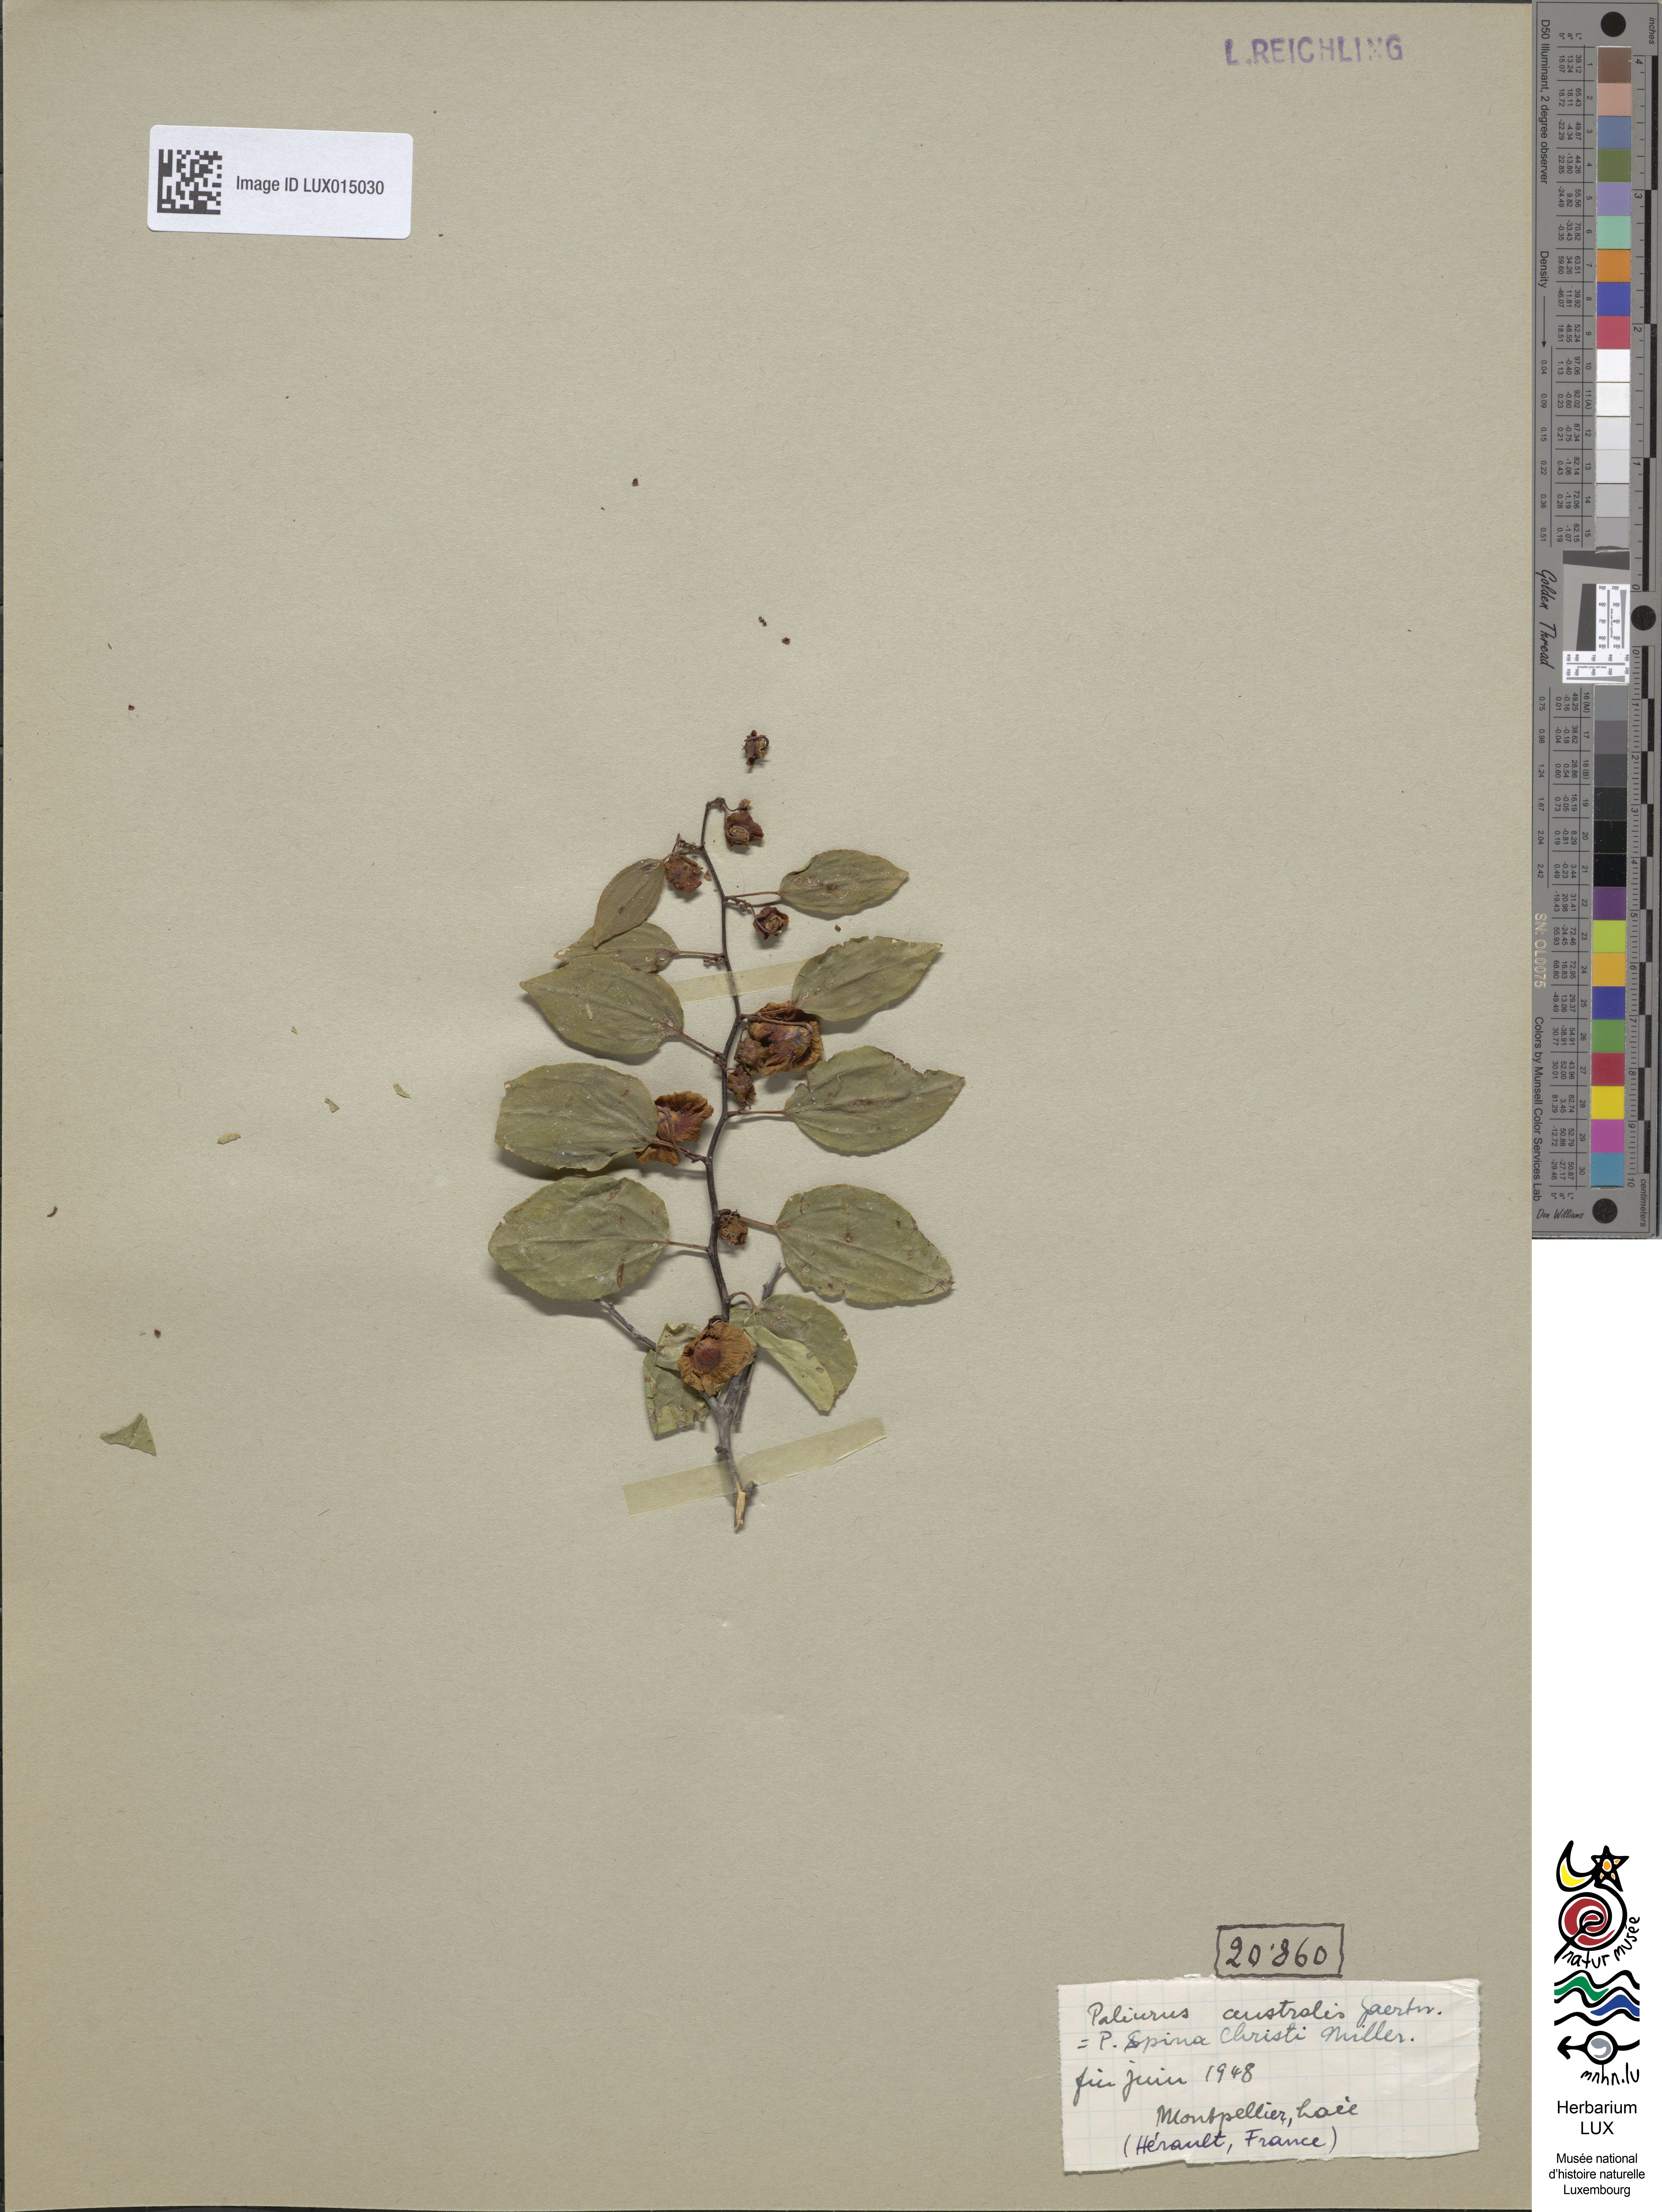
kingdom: Plantae
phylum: Tracheophyta
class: Magnoliopsida
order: Rosales
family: Rhamnaceae
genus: Paliurus
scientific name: Paliurus spina-christi
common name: Jeruselem thorn
